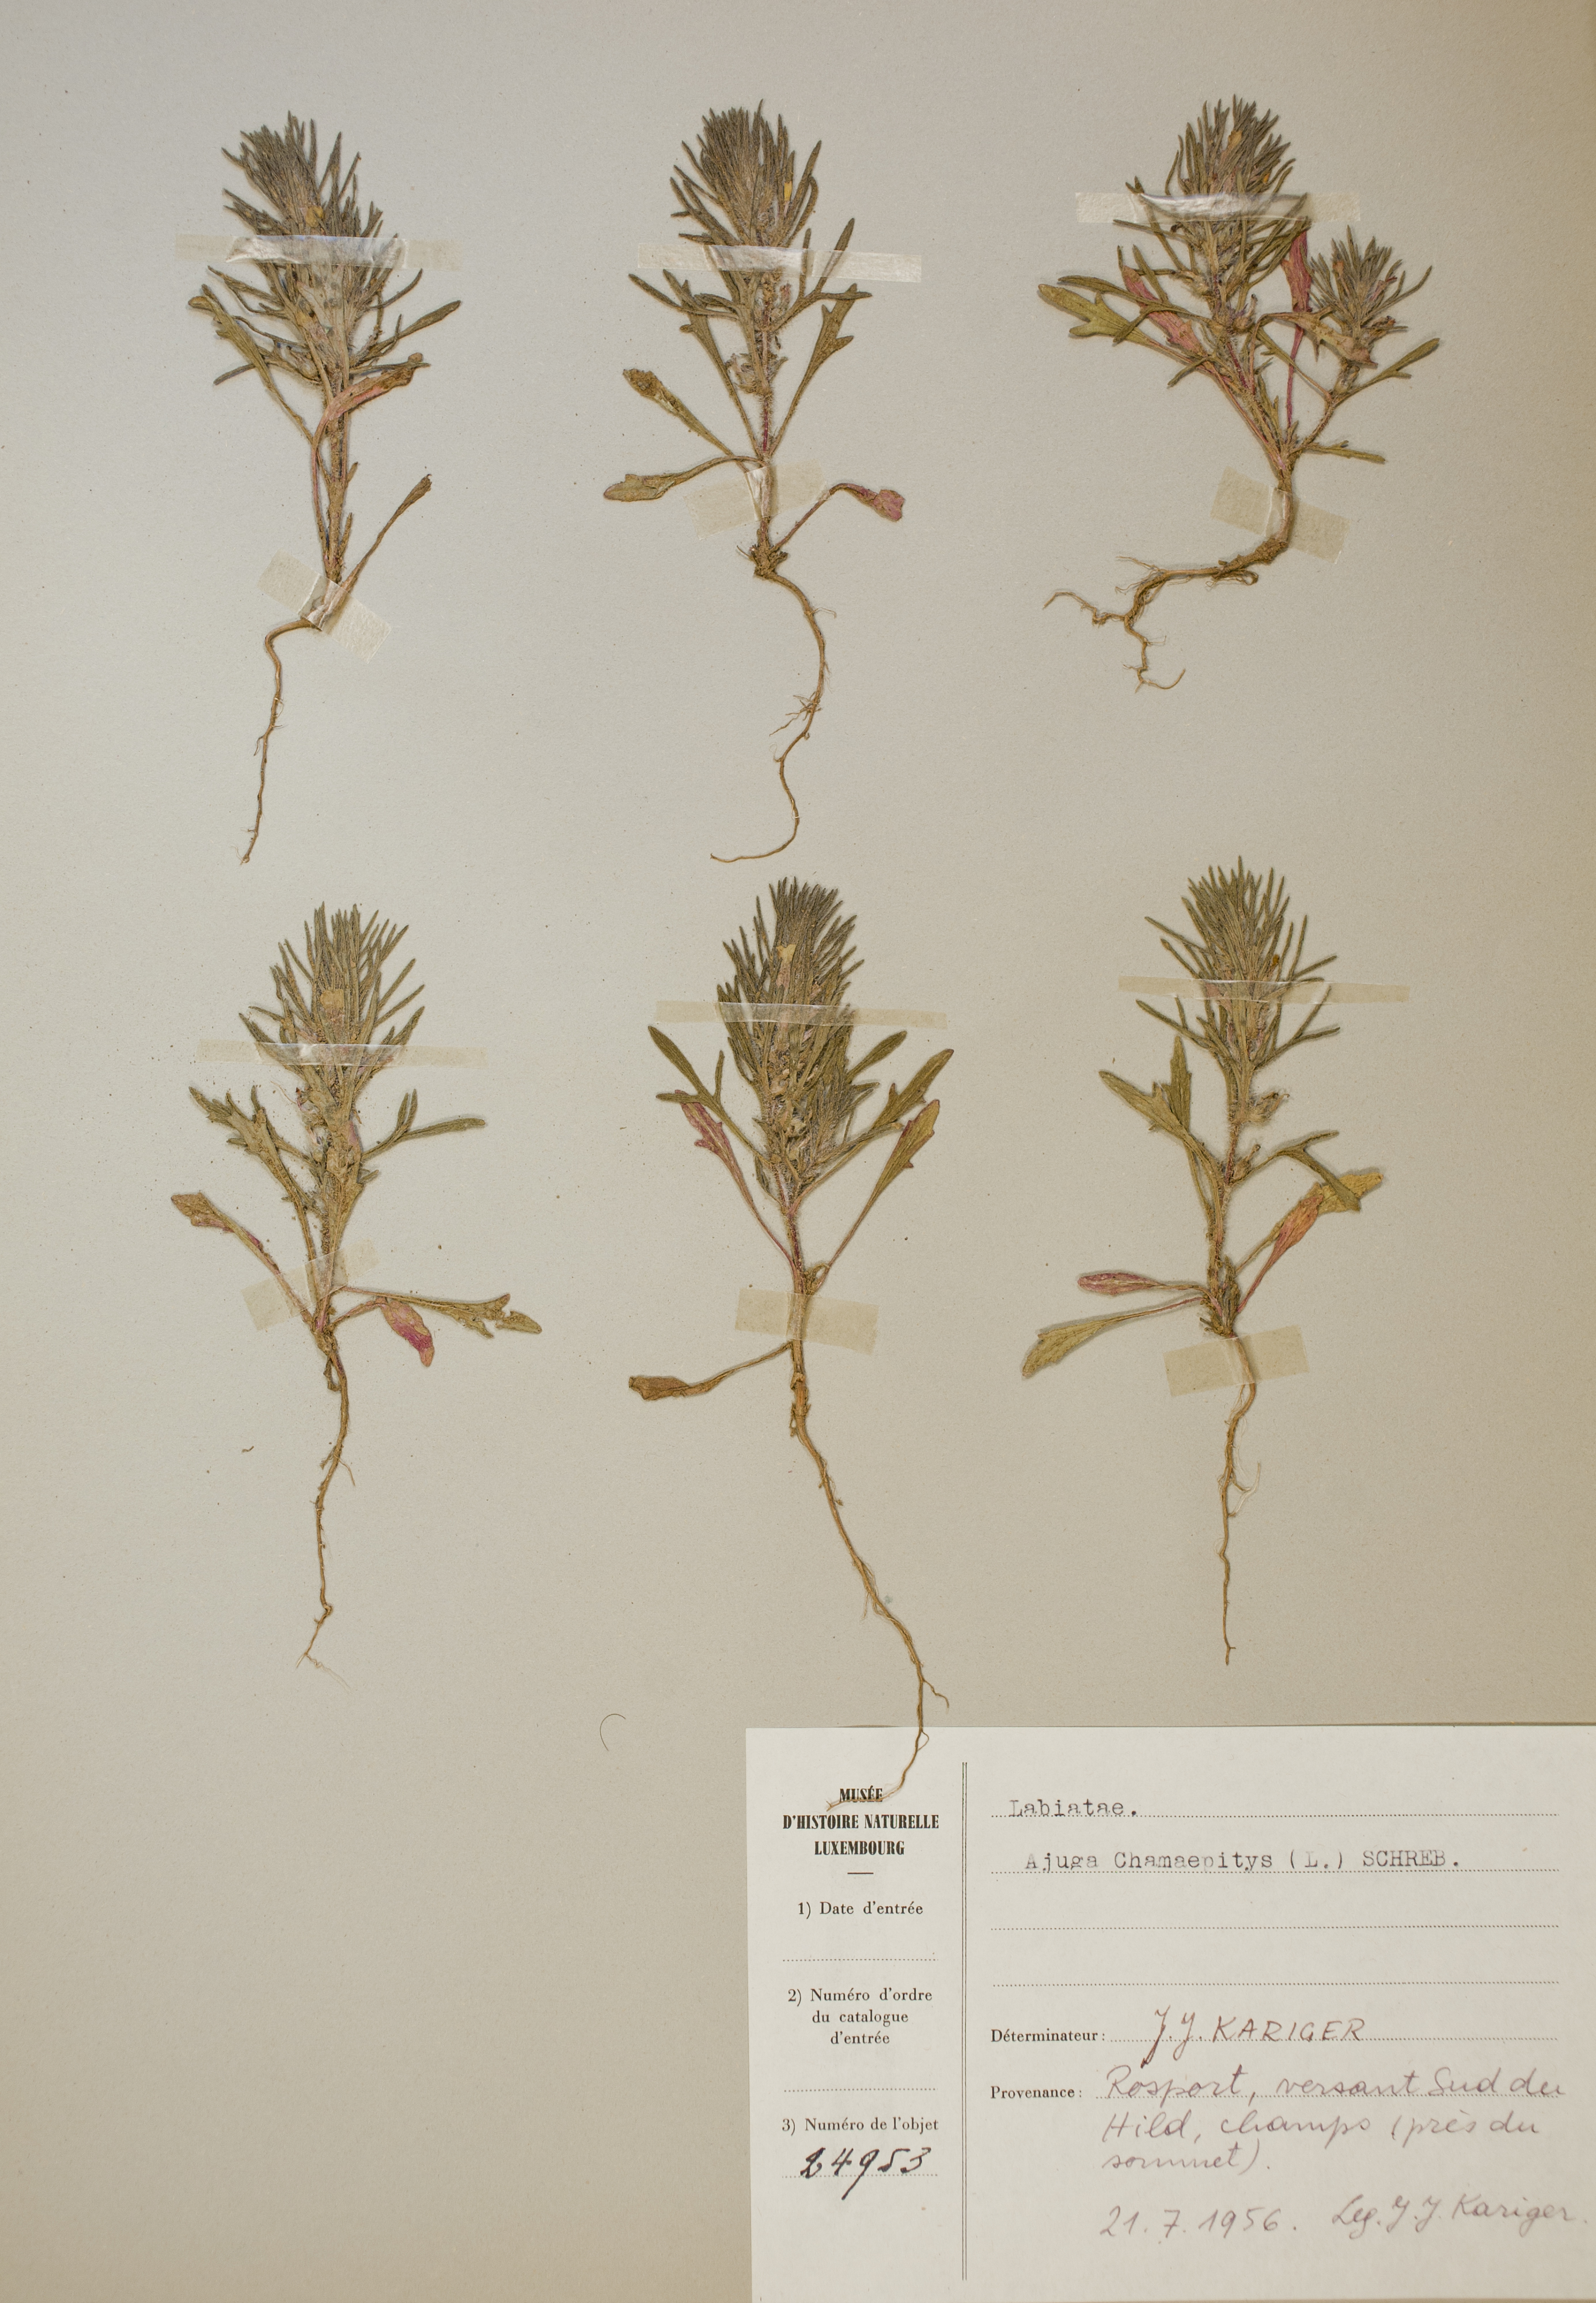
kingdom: Plantae
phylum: Tracheophyta
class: Magnoliopsida
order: Lamiales
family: Lamiaceae
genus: Ajuga
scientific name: Ajuga chamaepitys
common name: Ground-pine
